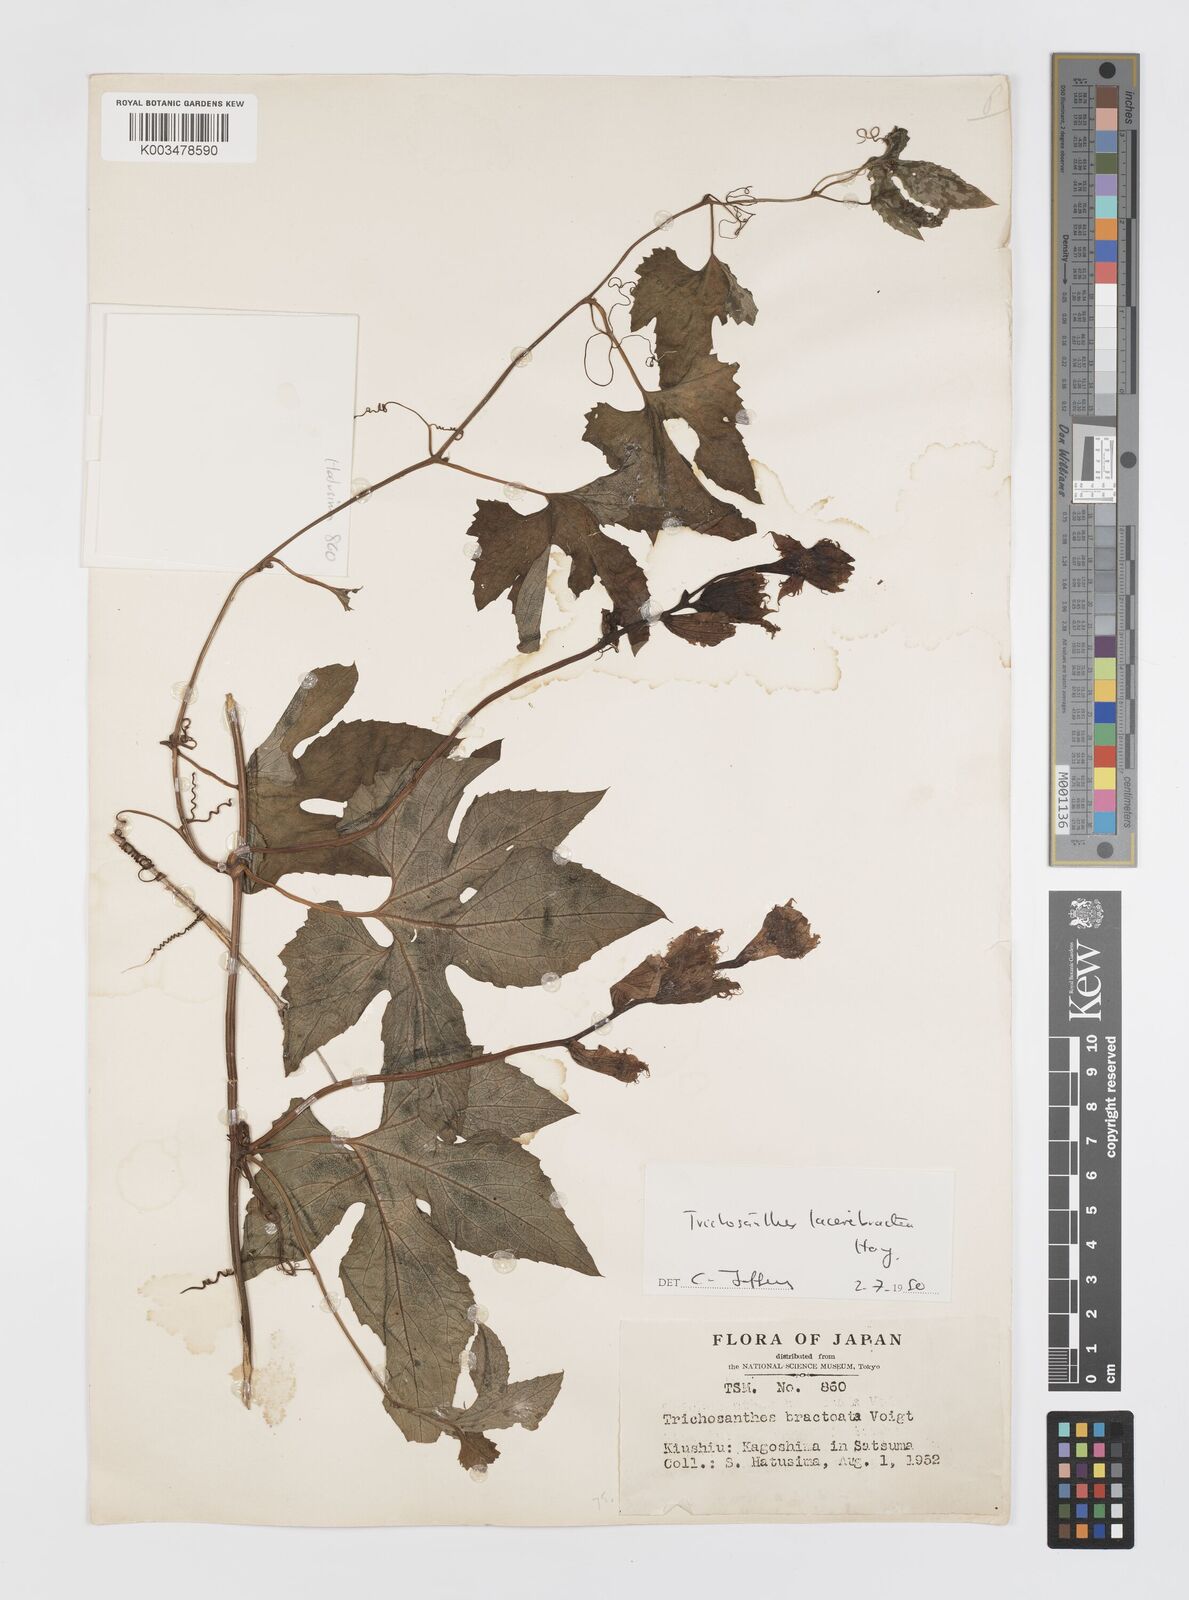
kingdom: Plantae
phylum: Tracheophyta
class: Magnoliopsida
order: Cucurbitales
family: Cucurbitaceae
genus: Trichosanthes
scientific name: Trichosanthes laceribractea
